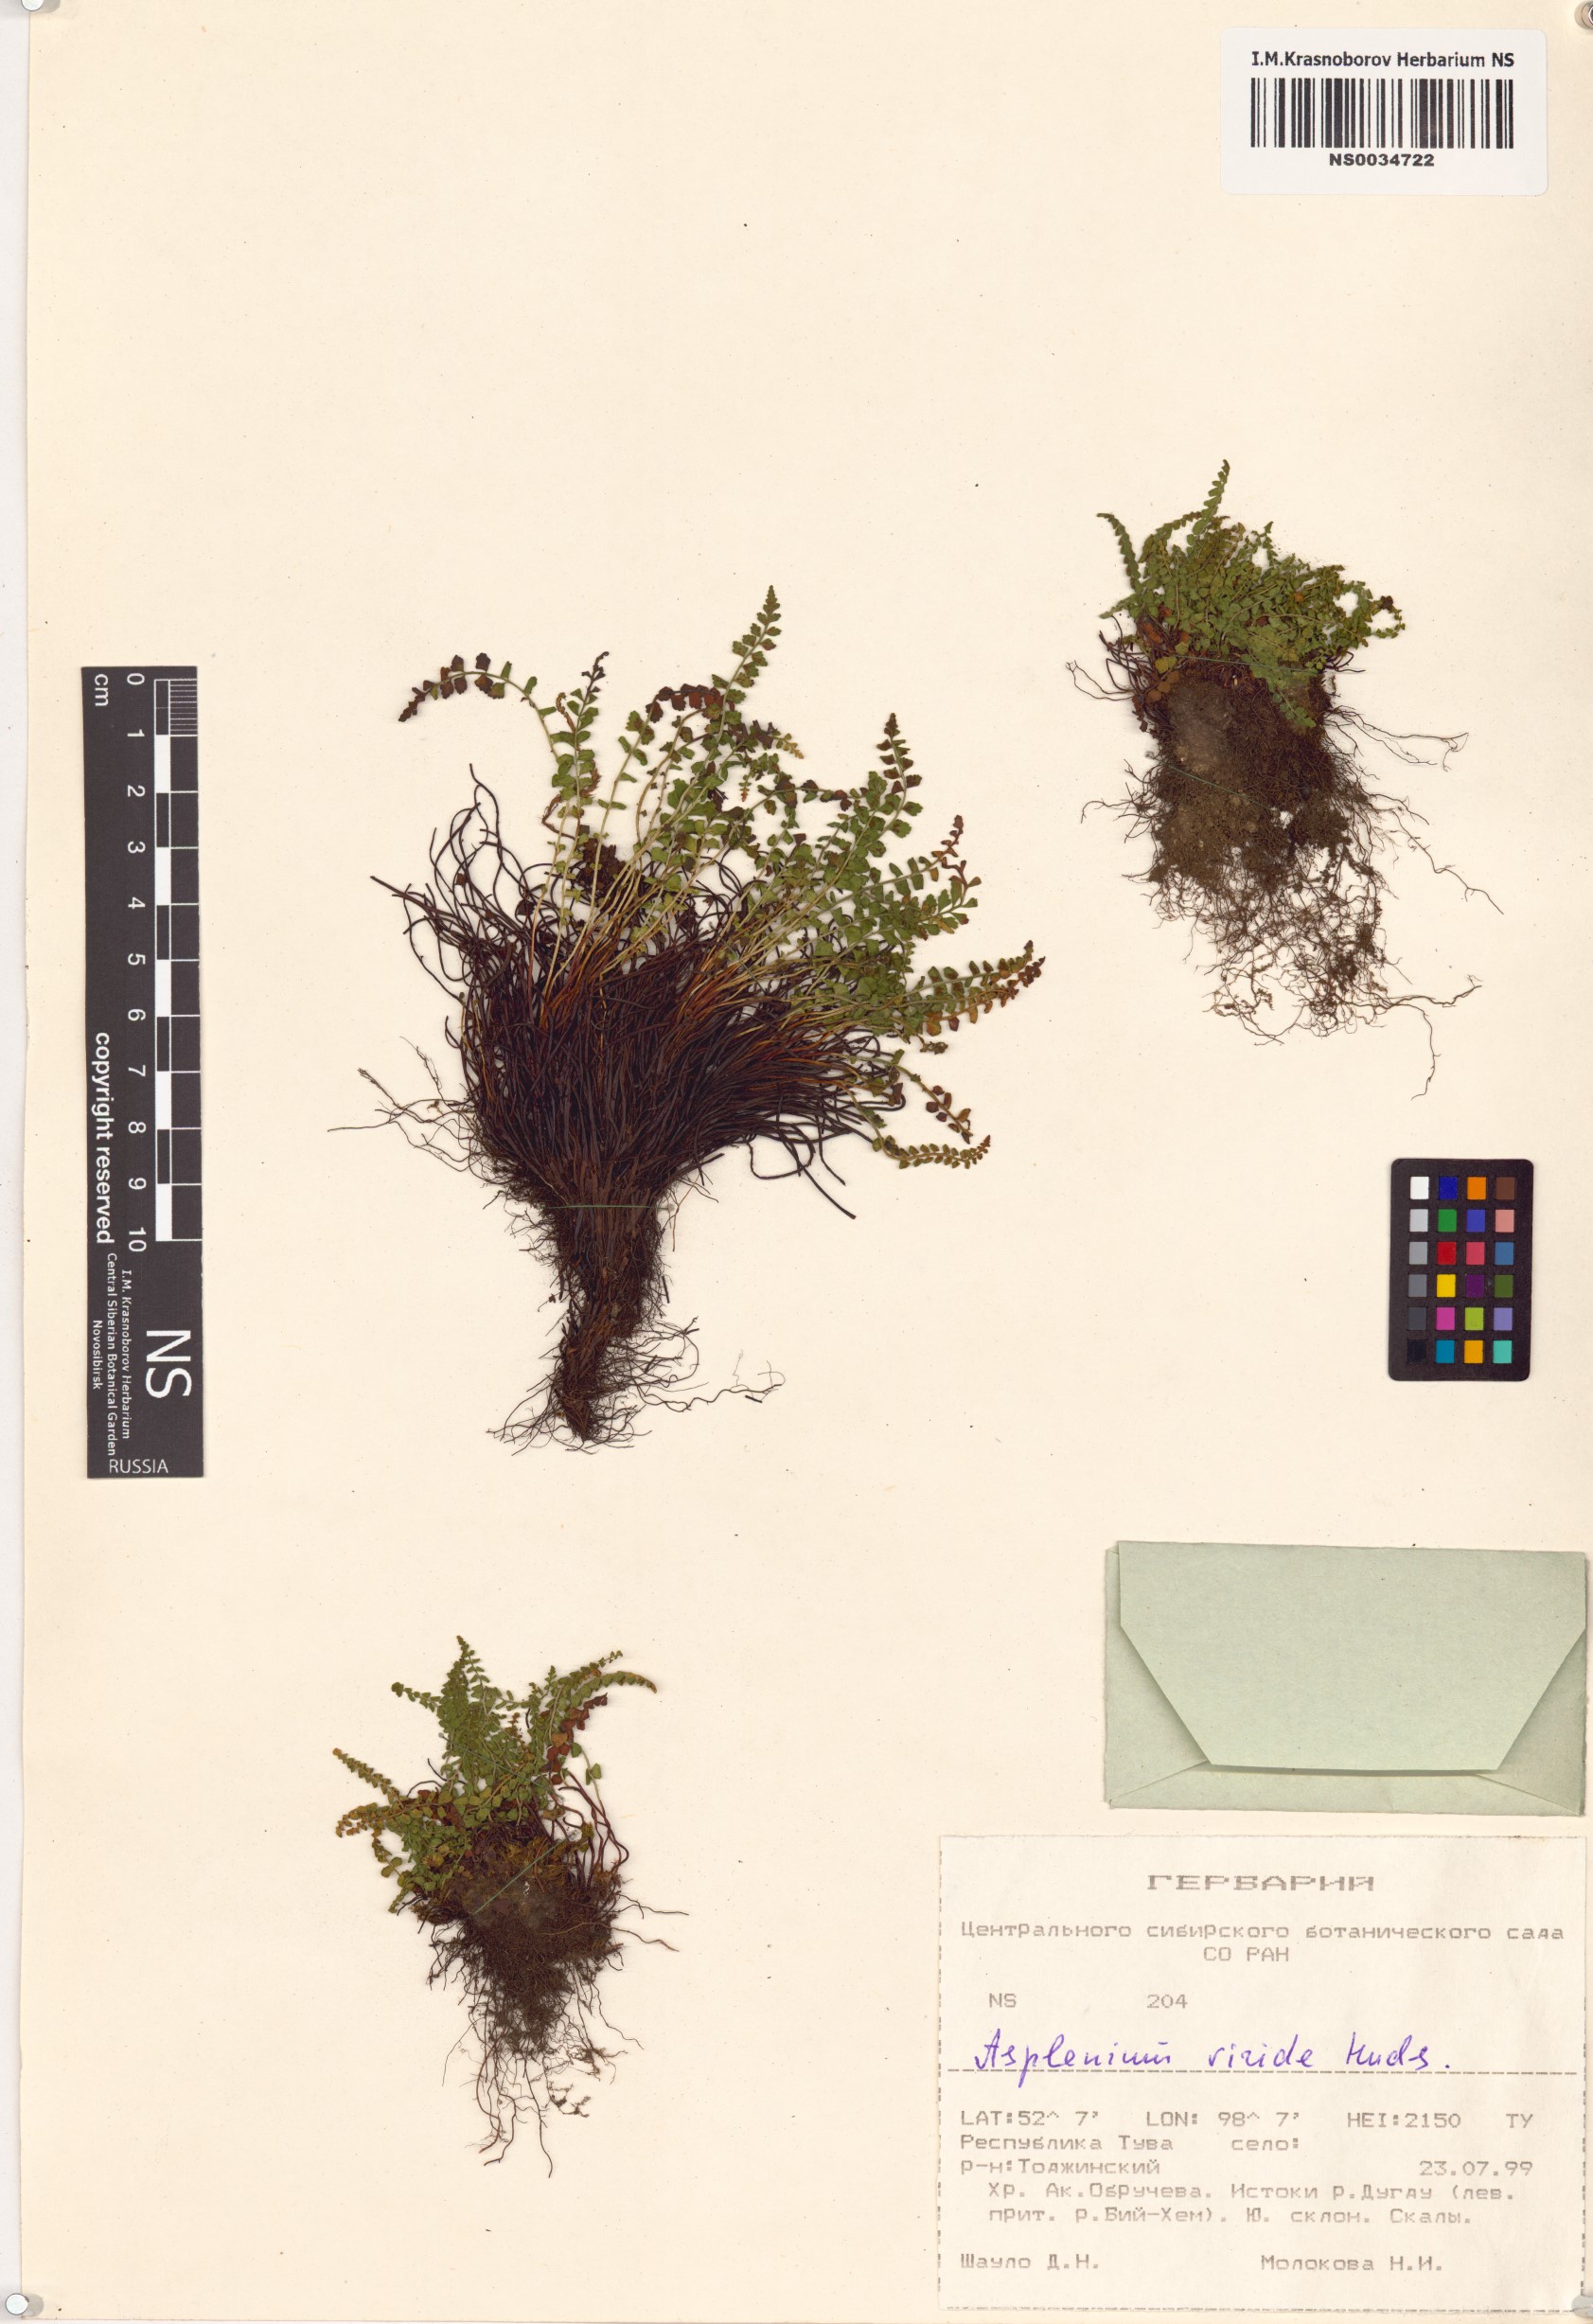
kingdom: Plantae
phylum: Tracheophyta
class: Polypodiopsida
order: Polypodiales
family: Aspleniaceae
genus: Asplenium
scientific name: Asplenium viride
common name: Green spleenwort
